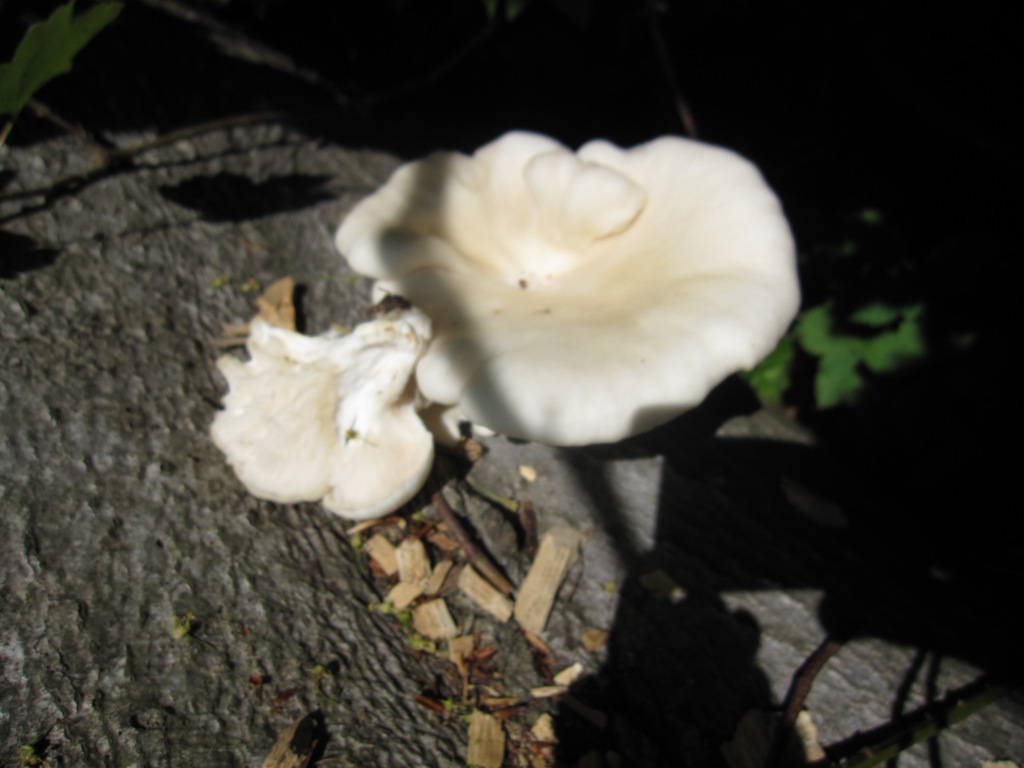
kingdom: Fungi
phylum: Basidiomycota
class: Agaricomycetes
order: Agaricales
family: Pleurotaceae
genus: Pleurotus
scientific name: Pleurotus pulmonarius
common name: sommer-østershat
